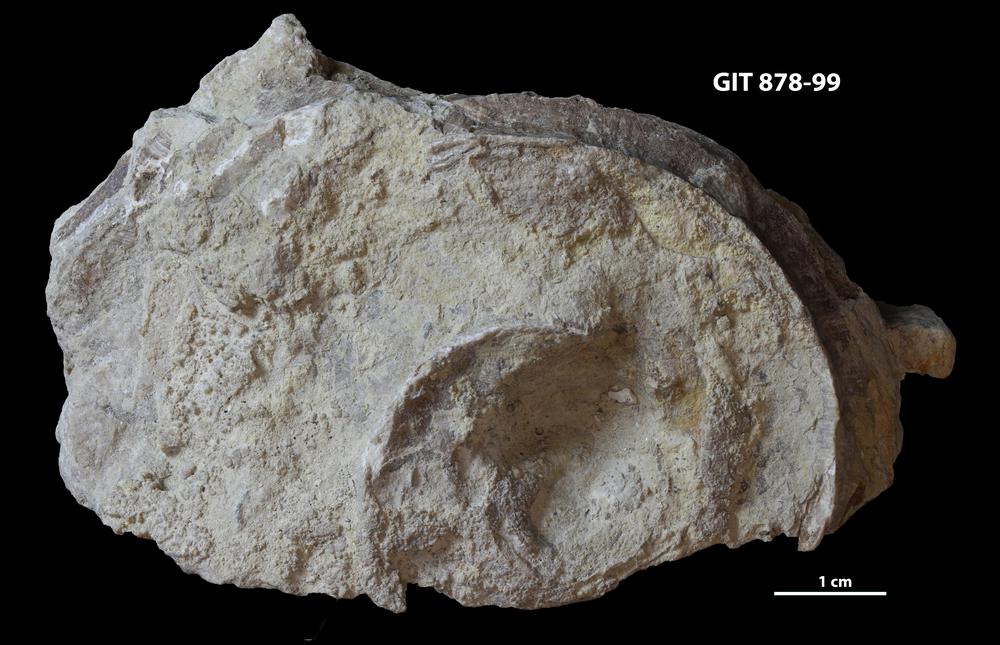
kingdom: Animalia
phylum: Mollusca
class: Cephalopoda
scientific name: Cephalopoda
